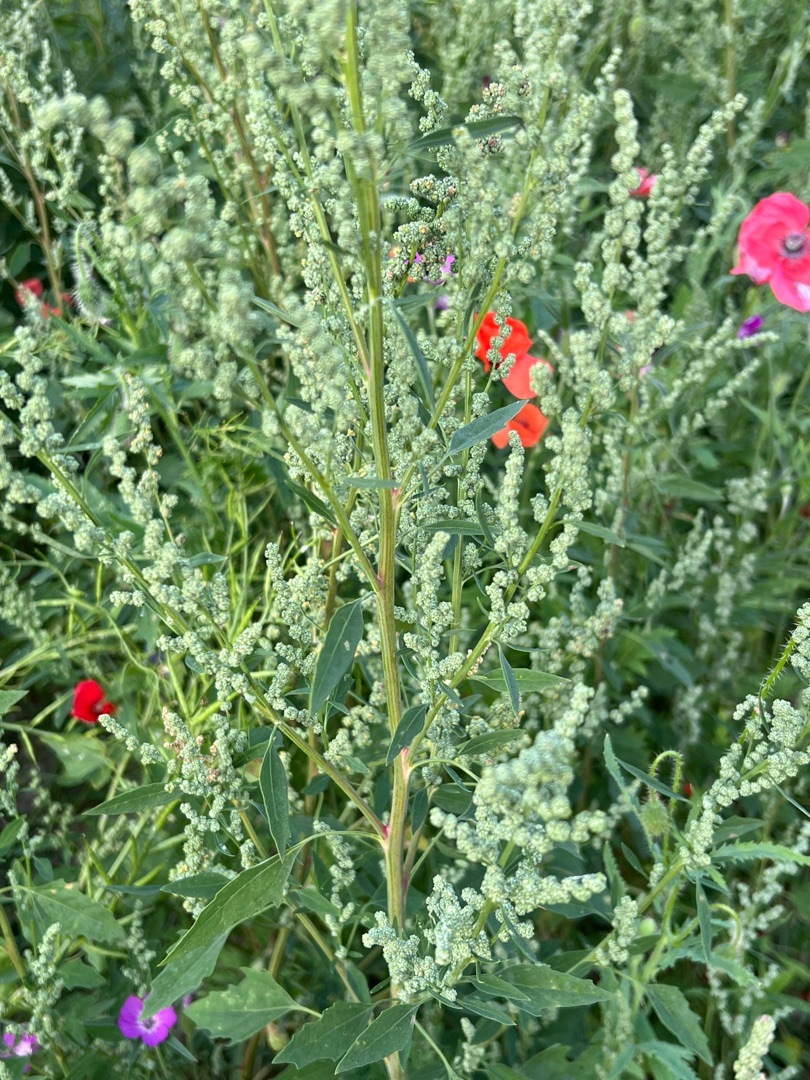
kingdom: Plantae
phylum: Tracheophyta
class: Magnoliopsida
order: Caryophyllales
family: Amaranthaceae
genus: Chenopodium
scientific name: Chenopodium album
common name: Hvidmelet gåsefod
